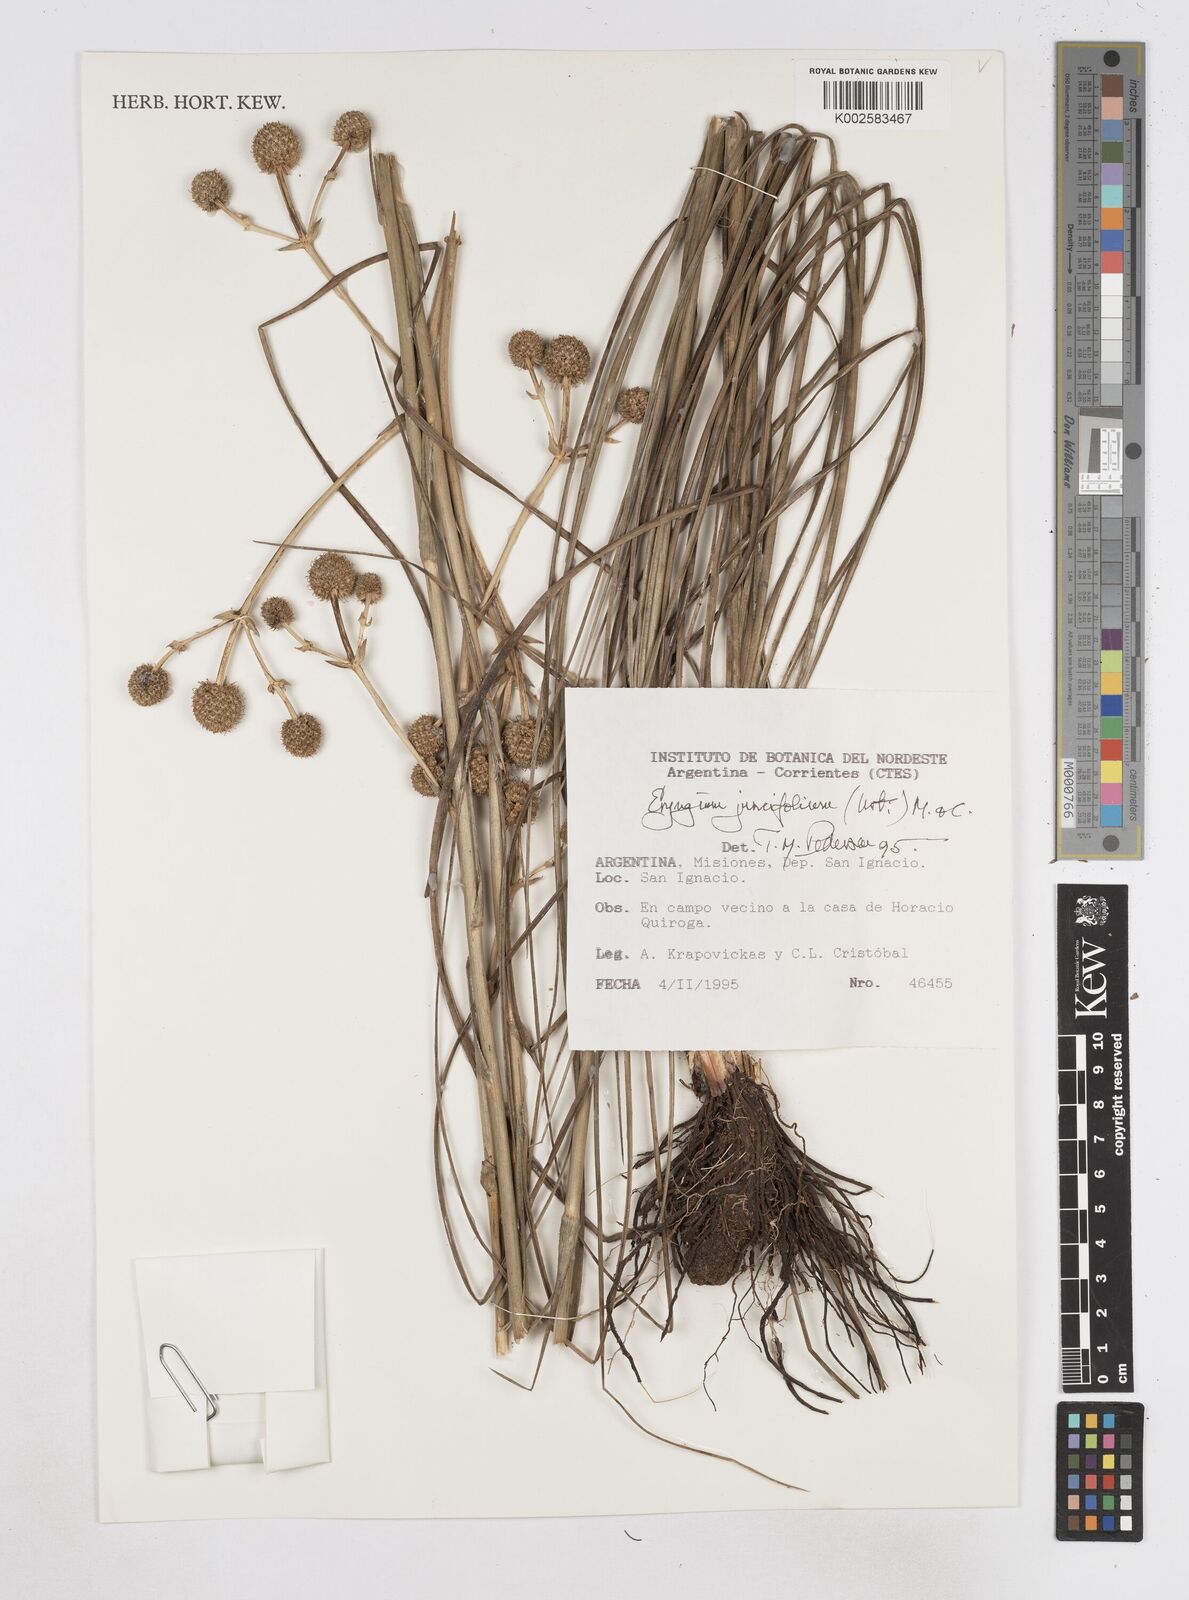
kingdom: Plantae
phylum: Tracheophyta
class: Magnoliopsida
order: Apiales
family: Apiaceae
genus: Eryngium
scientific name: Eryngium juncifolium
